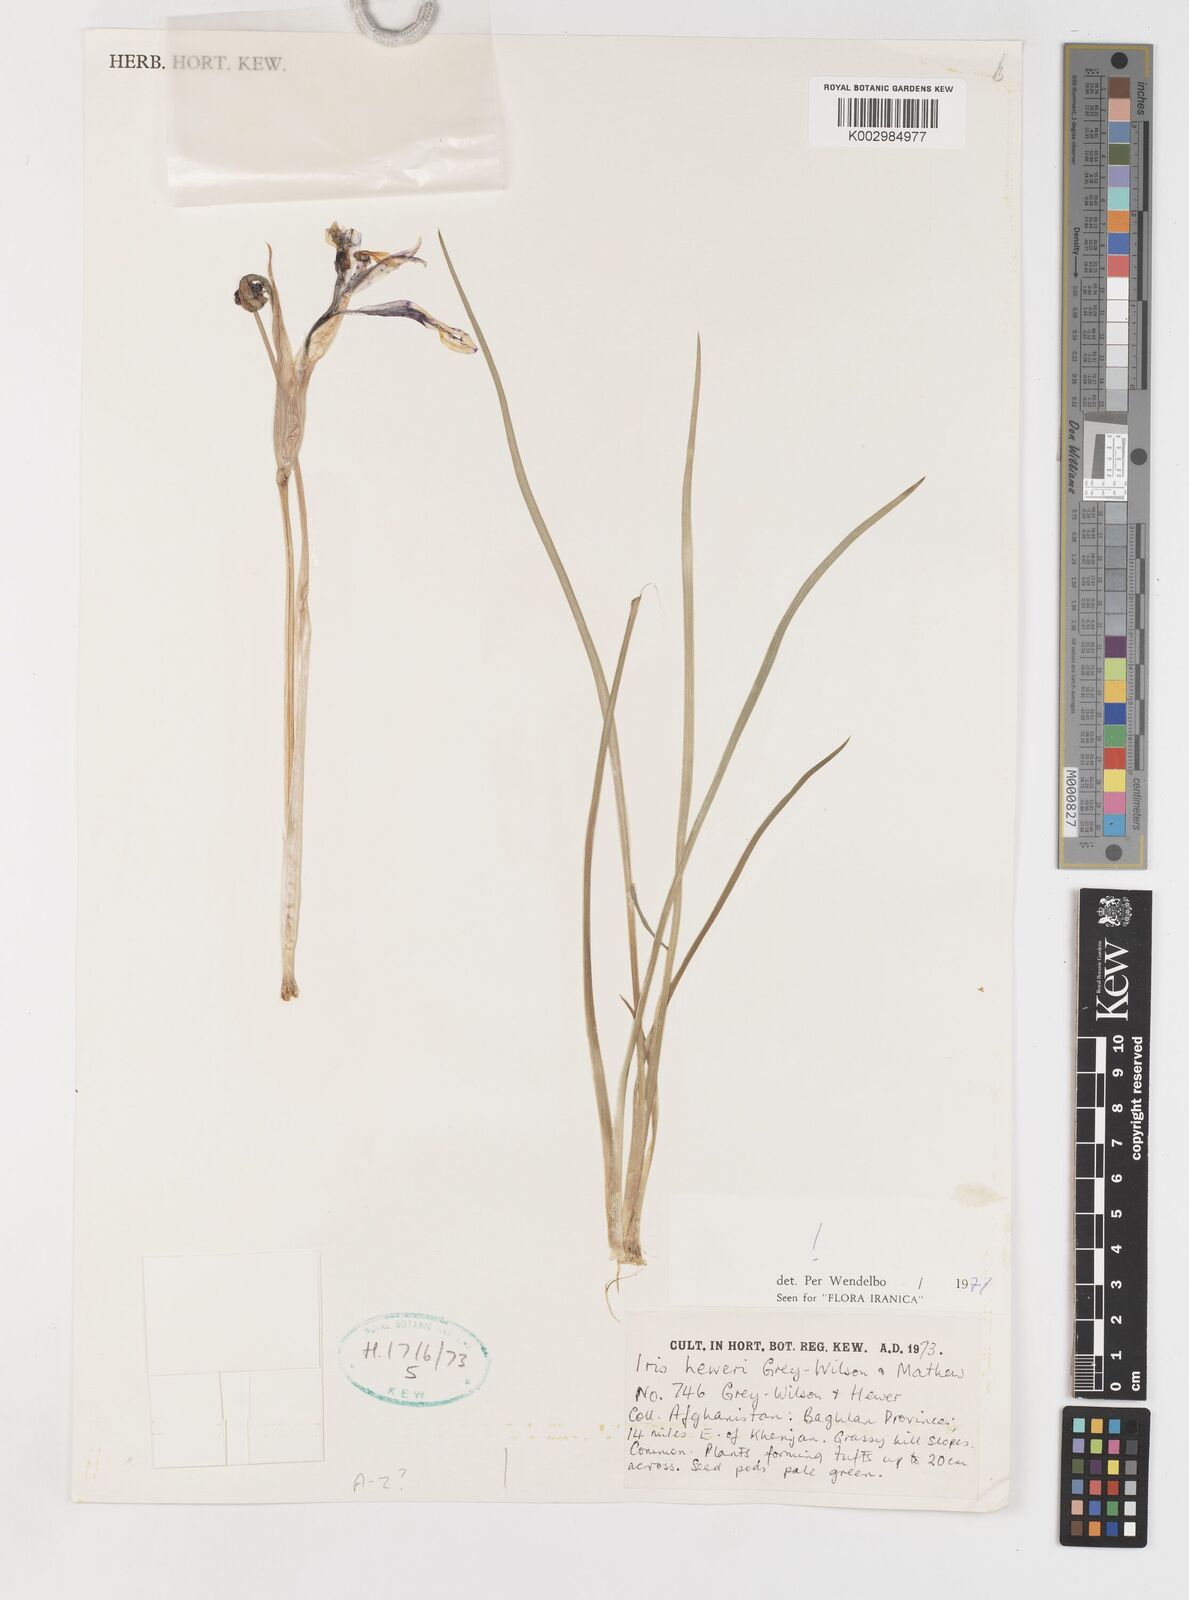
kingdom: Plantae
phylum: Tracheophyta
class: Liliopsida
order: Asparagales
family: Iridaceae
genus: Iris
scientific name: Iris heweri
